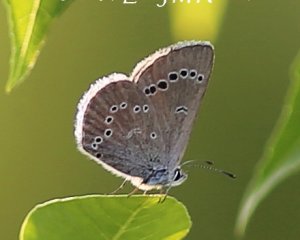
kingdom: Animalia
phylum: Arthropoda
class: Insecta
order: Lepidoptera
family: Lycaenidae
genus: Glaucopsyche
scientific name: Glaucopsyche lygdamus
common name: Silvery Blue
